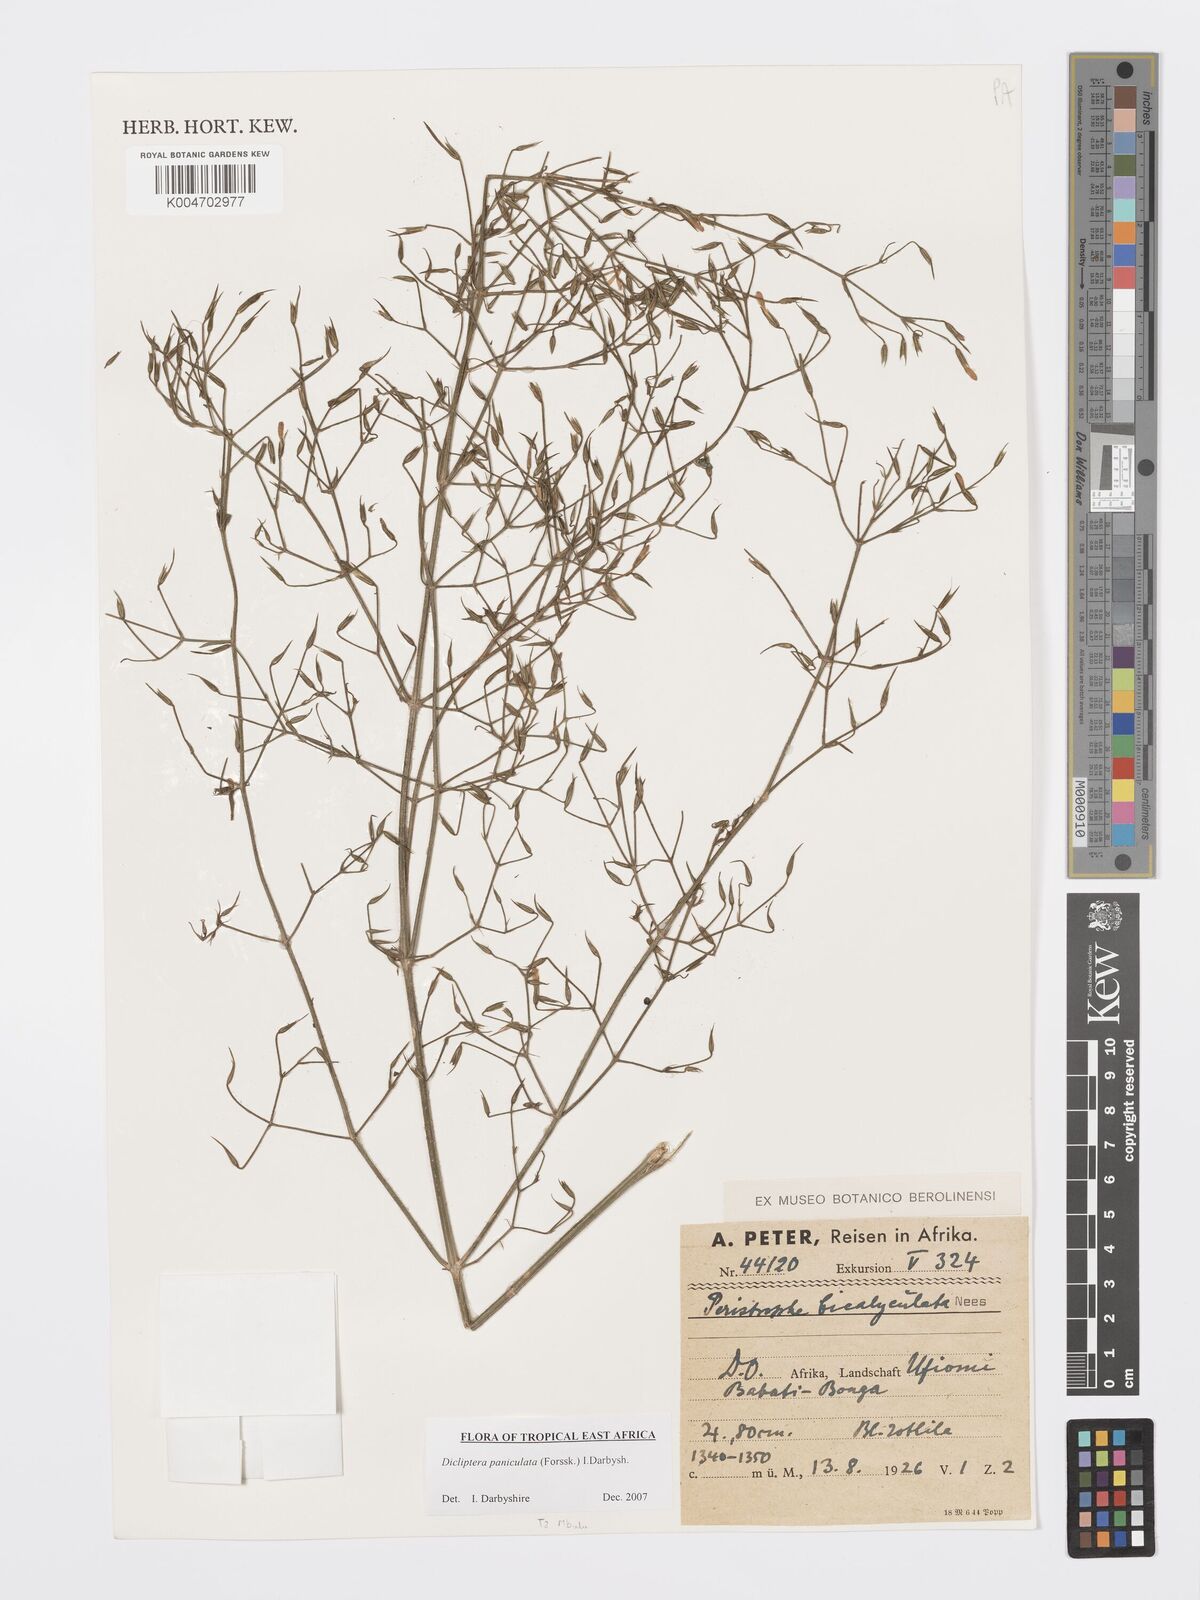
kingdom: Plantae
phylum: Tracheophyta
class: Magnoliopsida
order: Lamiales
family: Acanthaceae
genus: Dicliptera
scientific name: Dicliptera paniculata
